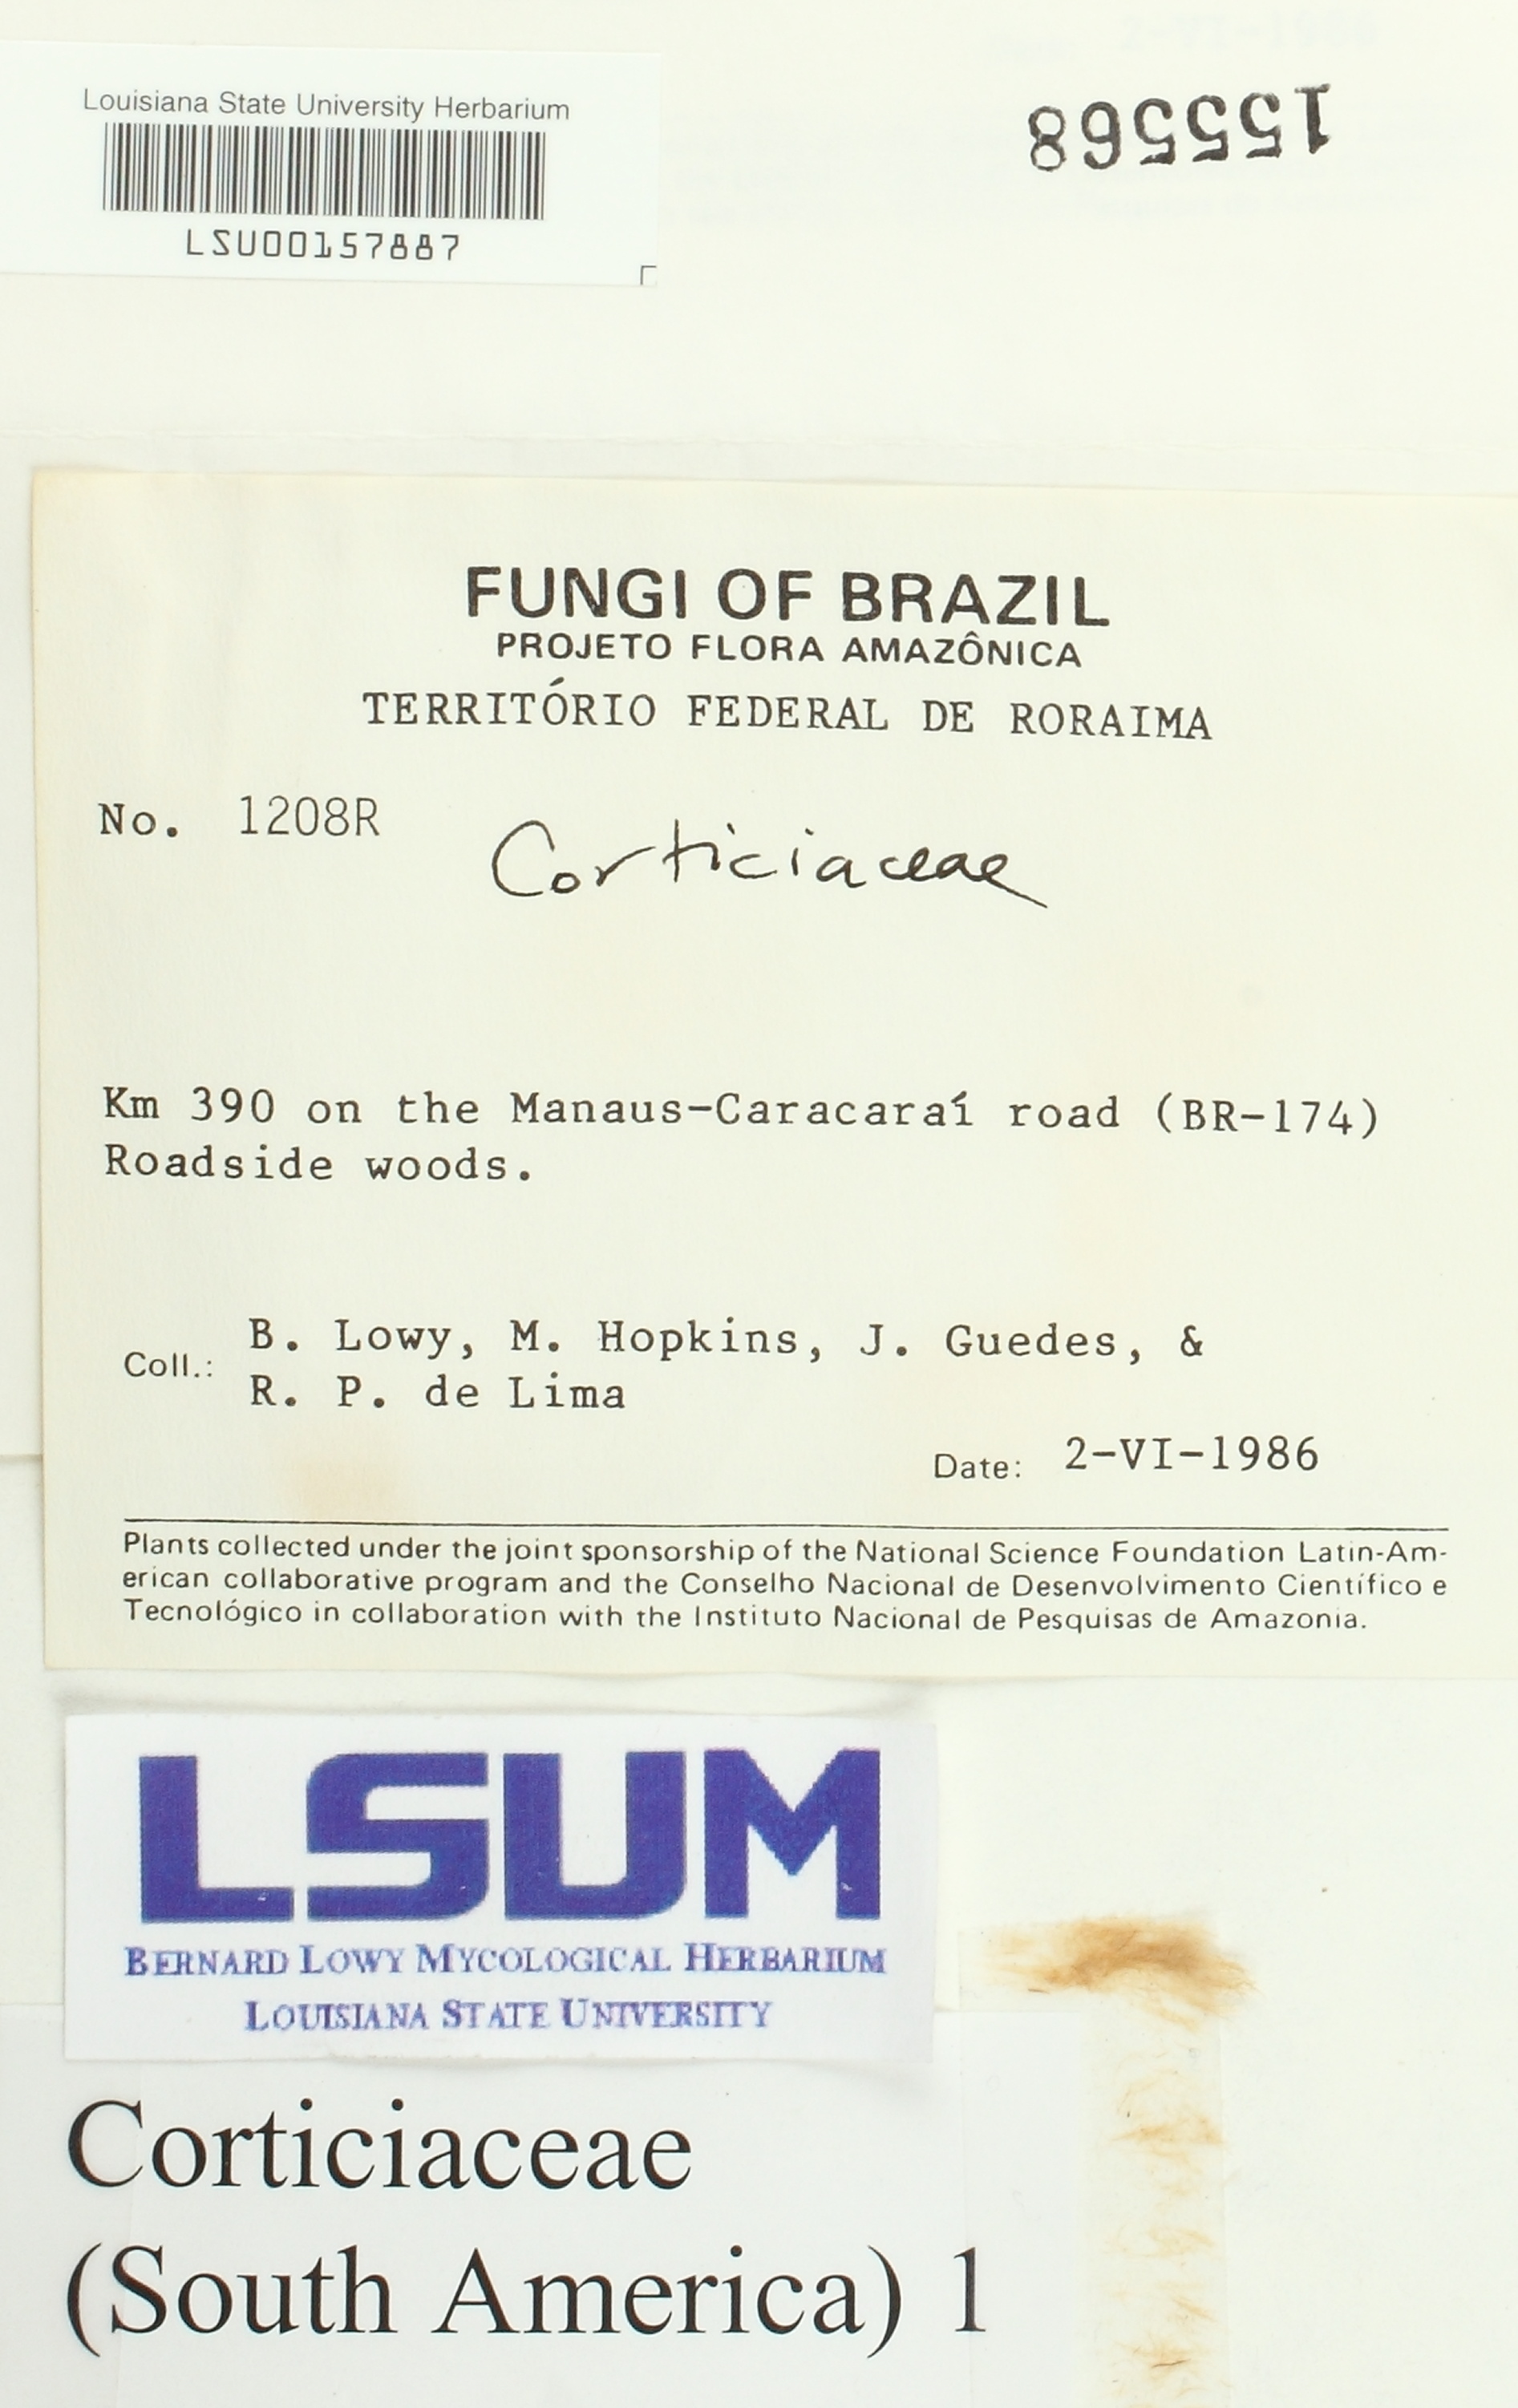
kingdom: Fungi
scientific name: Fungi
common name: Fungi
